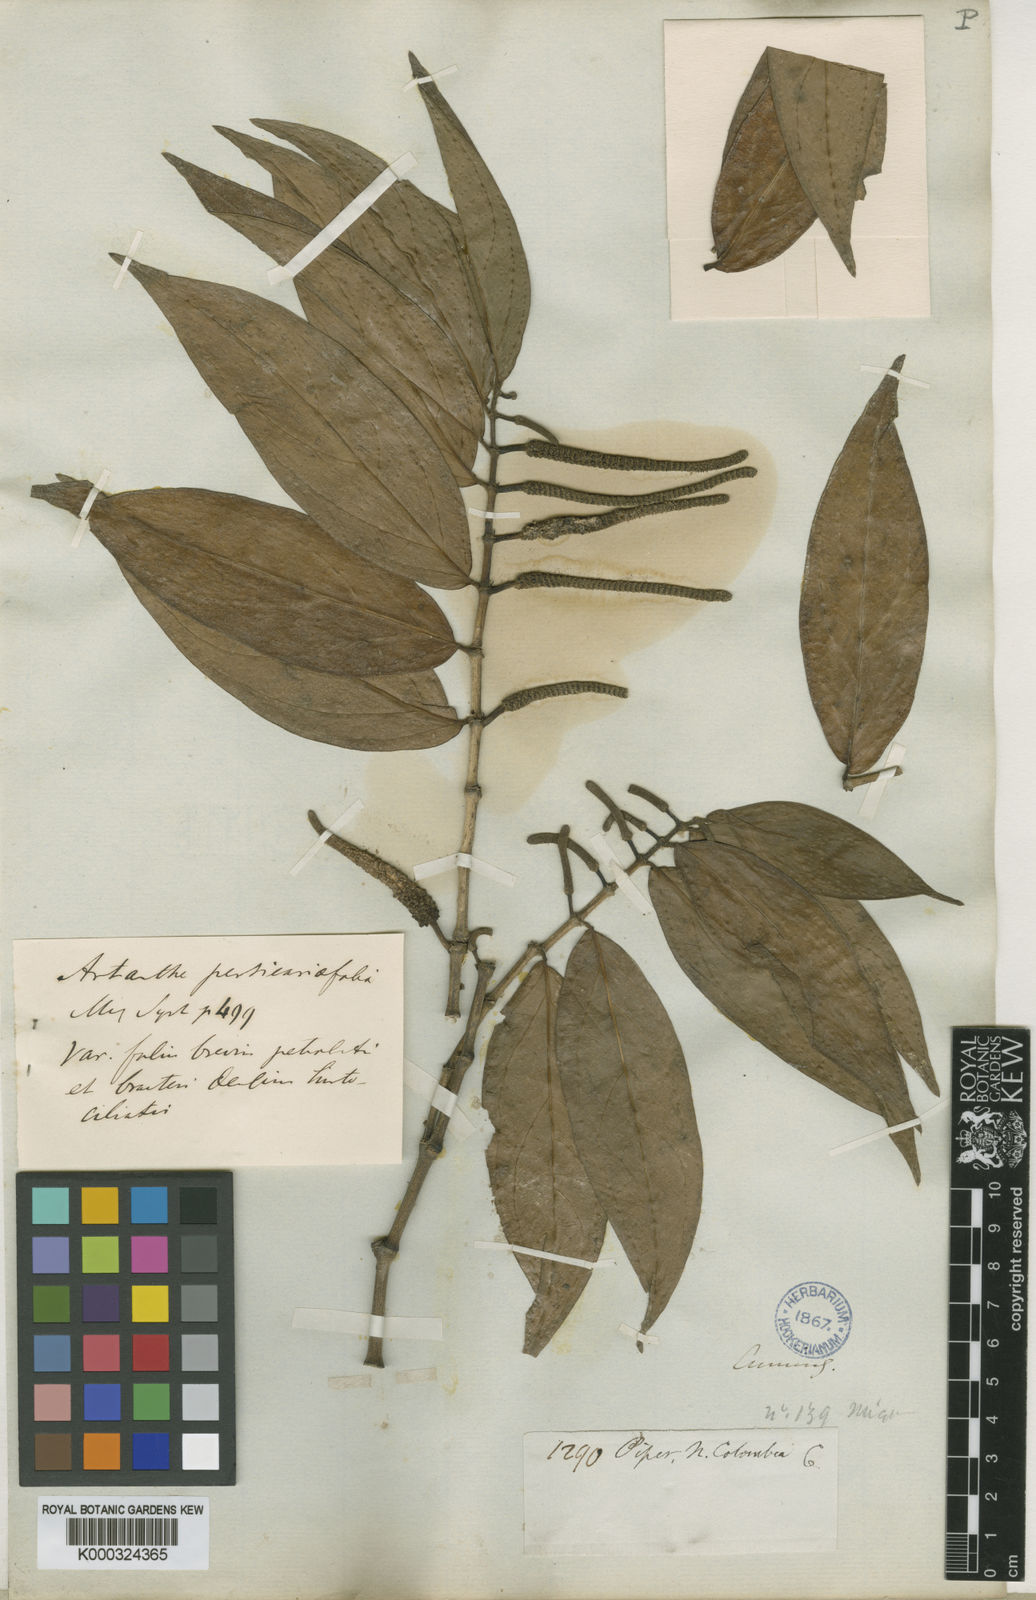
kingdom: Plantae
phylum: Tracheophyta
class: Magnoliopsida
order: Piperales
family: Piperaceae
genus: Piper
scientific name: Piper
